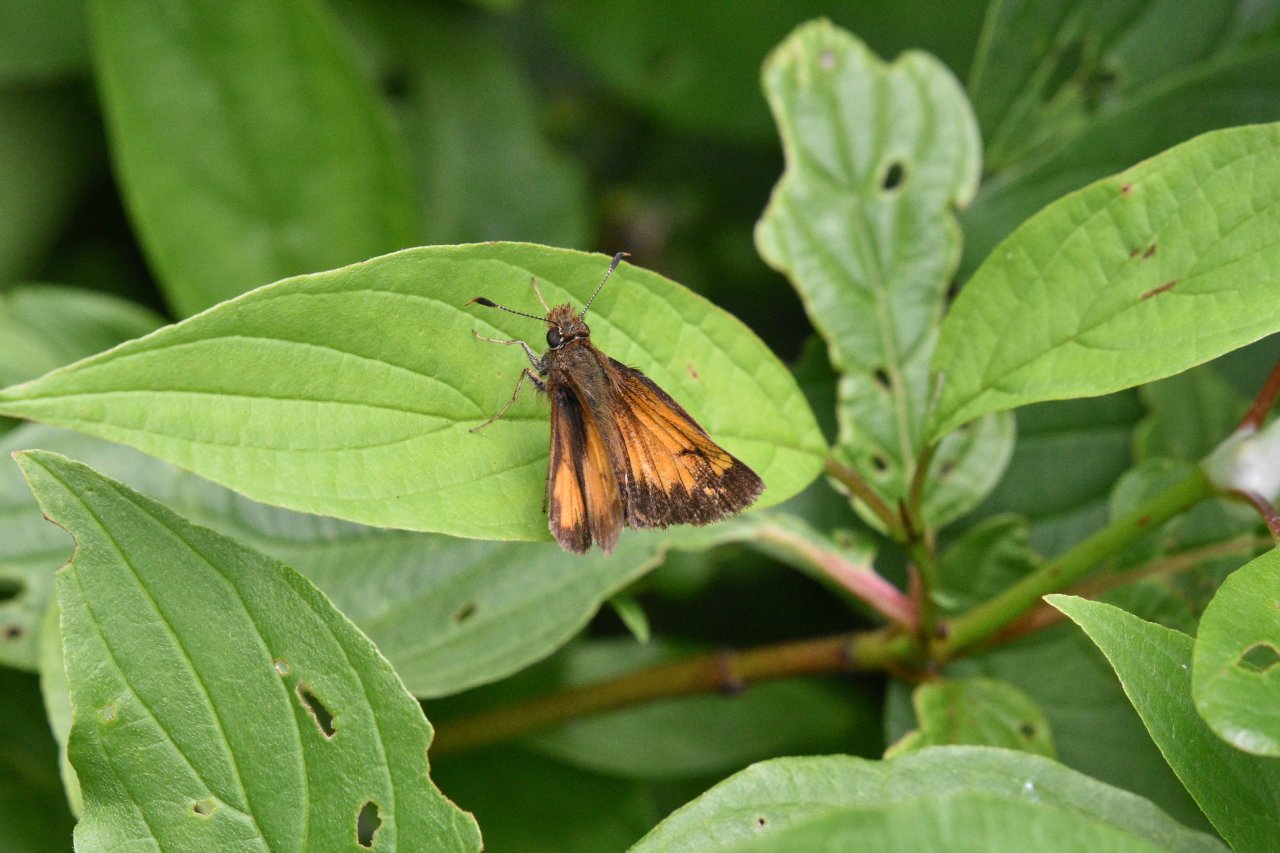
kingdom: Animalia
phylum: Arthropoda
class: Insecta
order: Lepidoptera
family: Hesperiidae
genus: Lon
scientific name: Lon hobomok
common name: Hobomok Skipper
